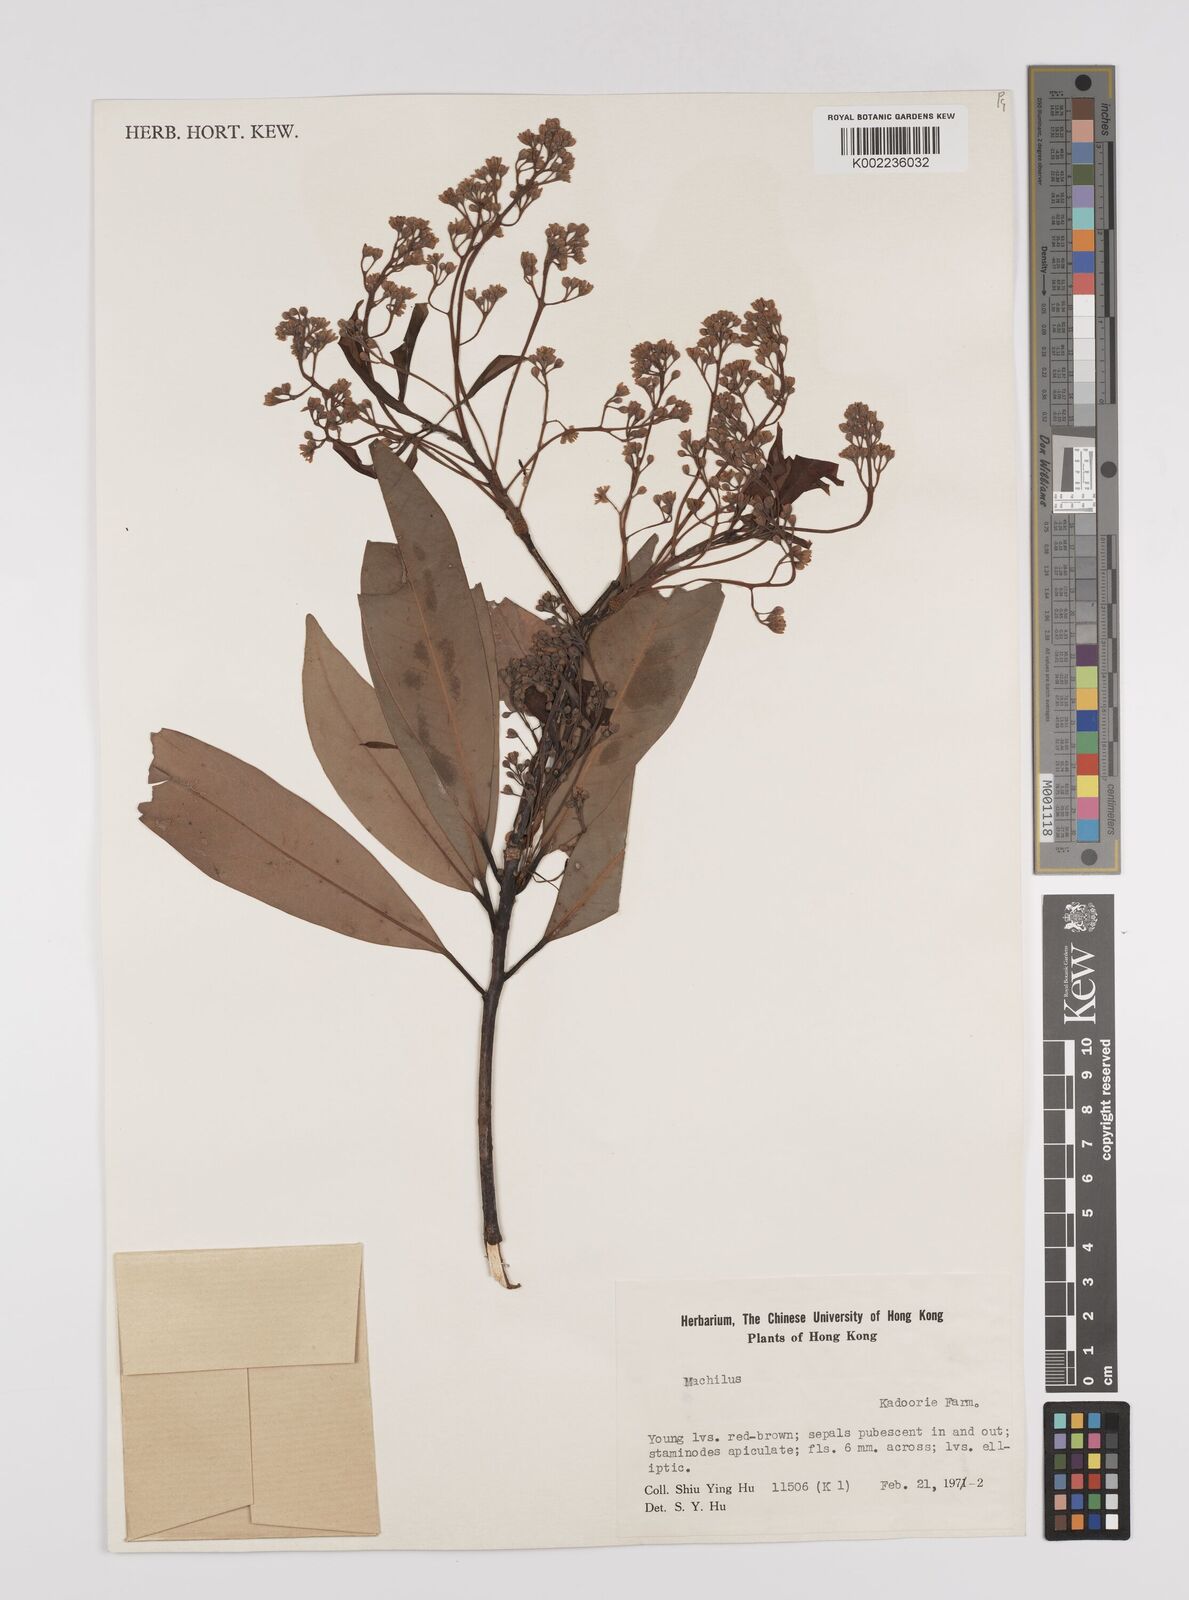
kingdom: Plantae
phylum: Tracheophyta
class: Magnoliopsida
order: Laurales
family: Lauraceae
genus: Persea
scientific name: Persea
